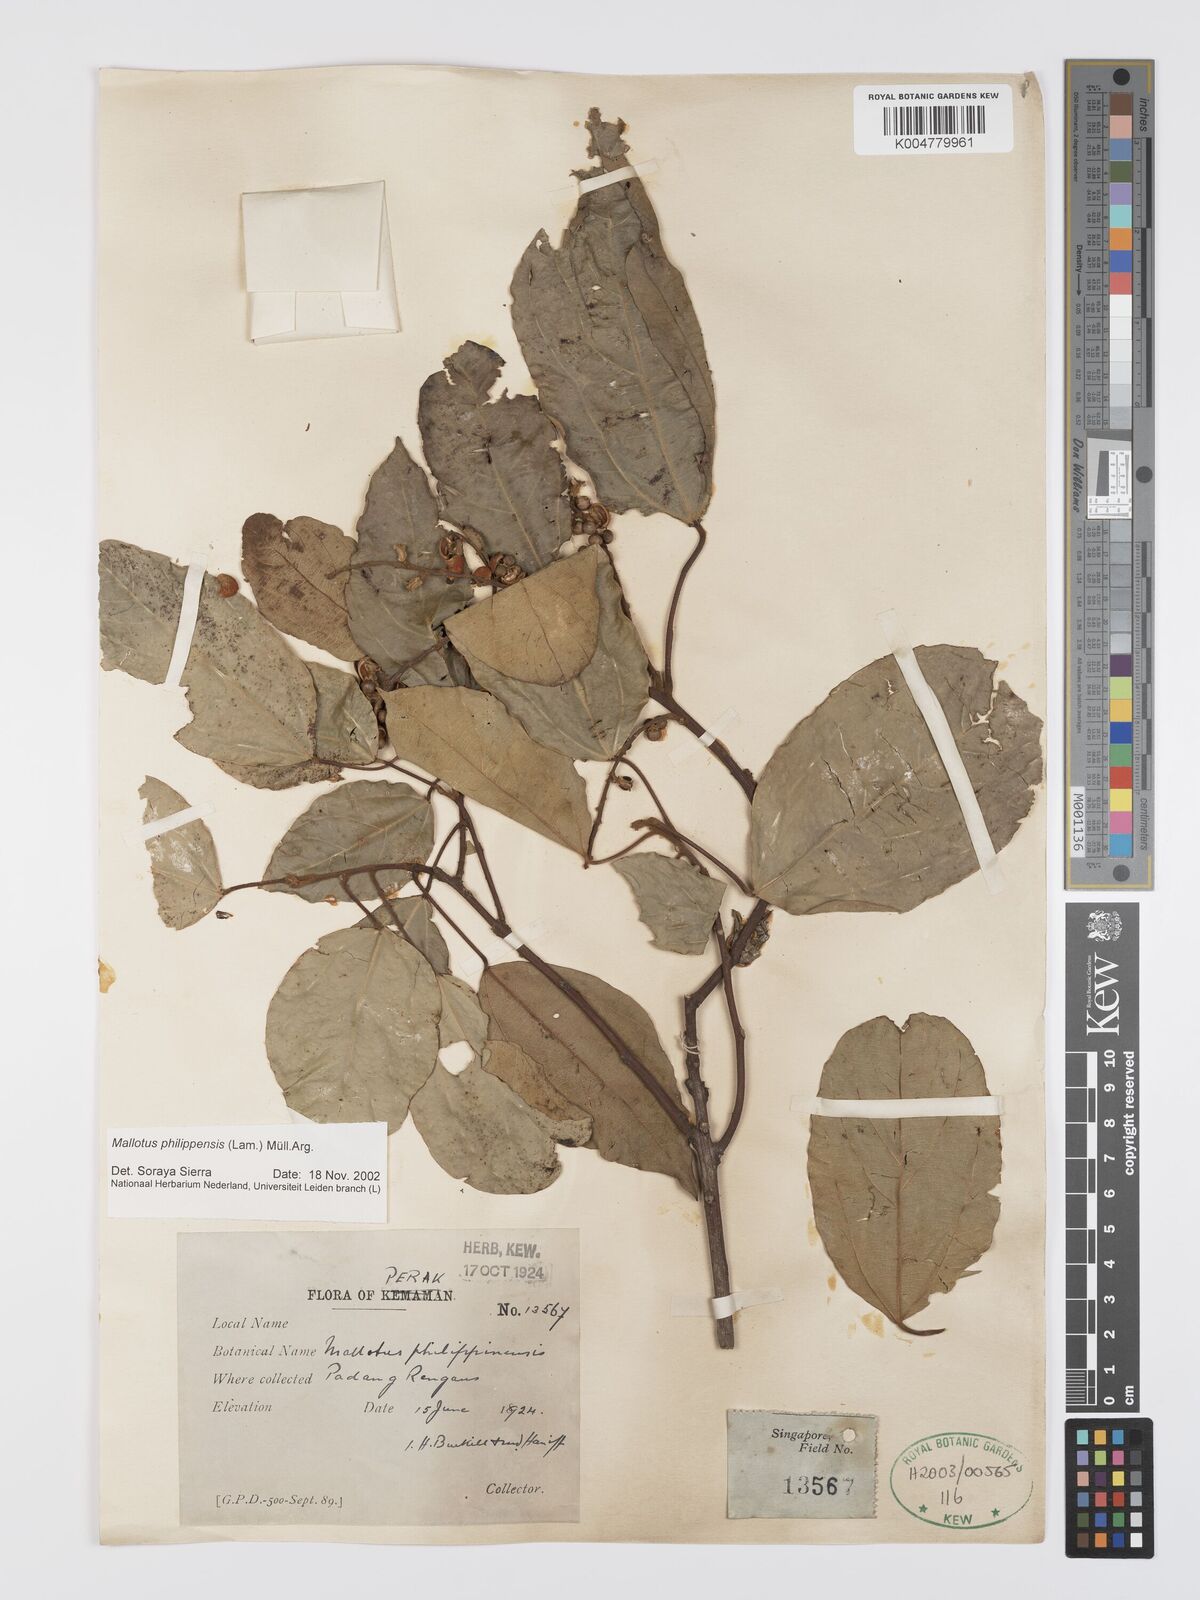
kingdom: Plantae
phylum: Tracheophyta
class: Magnoliopsida
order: Malpighiales
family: Euphorbiaceae
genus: Mallotus
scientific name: Mallotus philippensis
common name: Kamala tree
